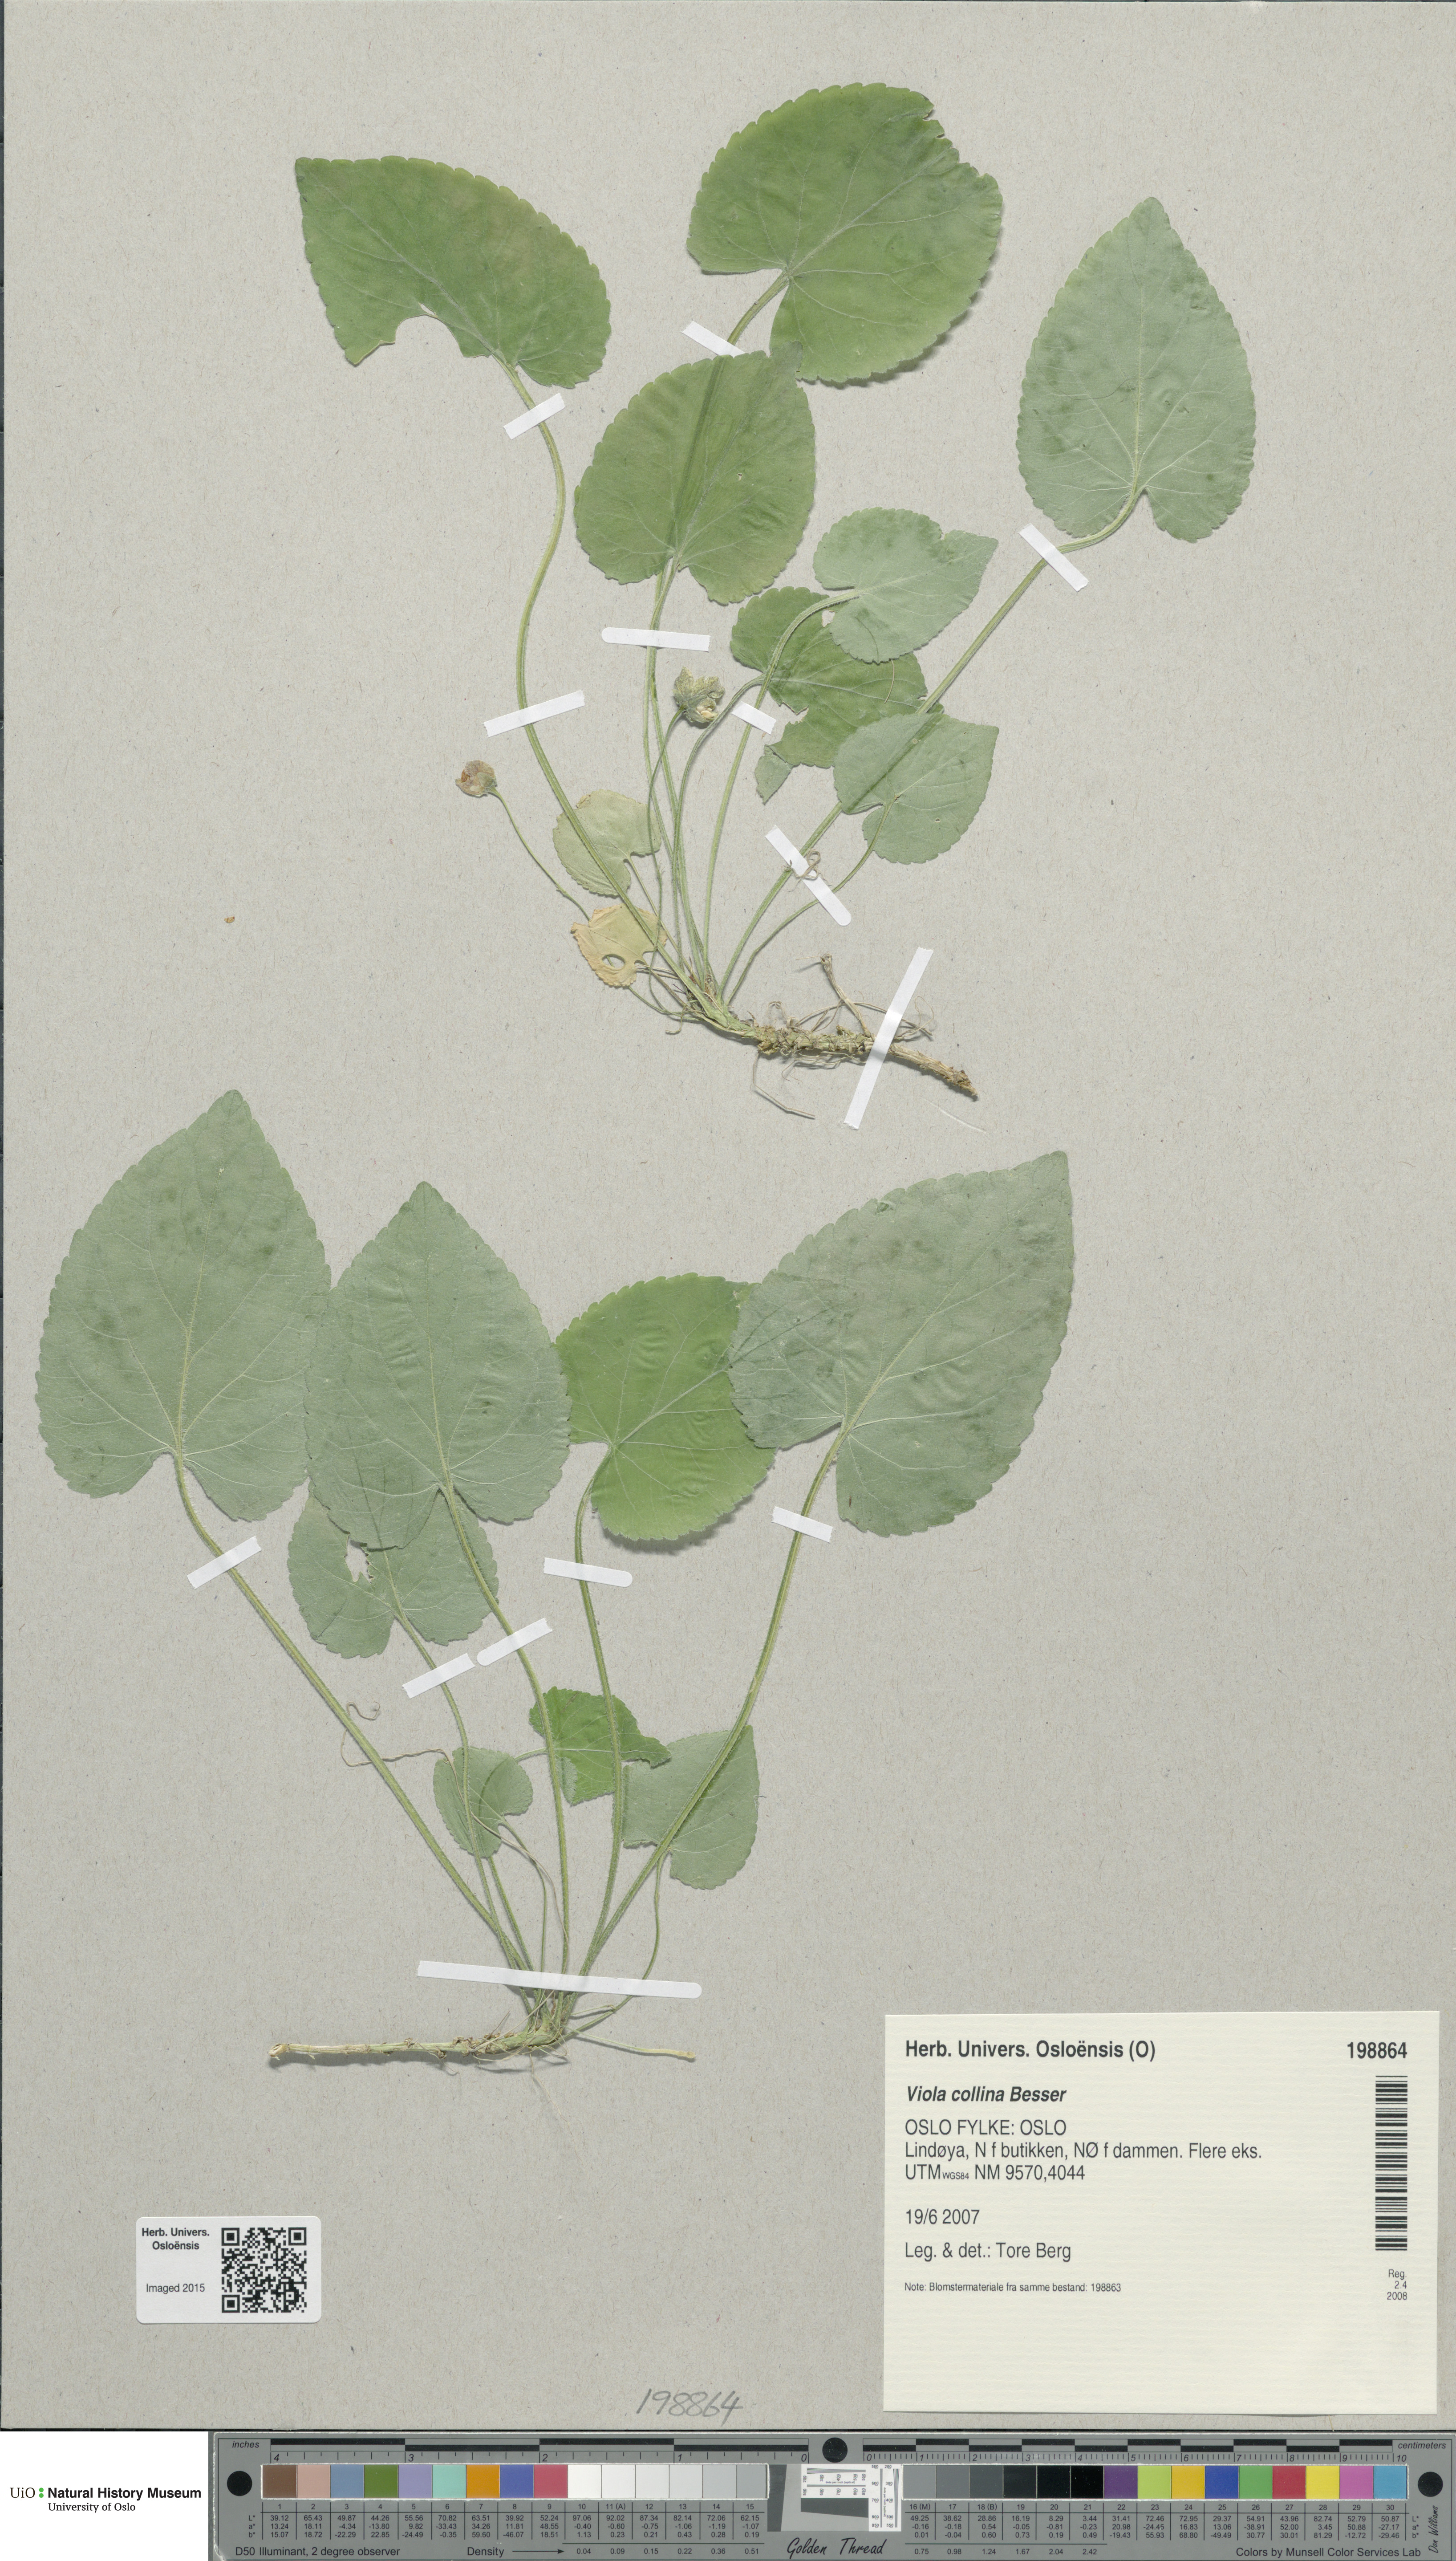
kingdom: Plantae
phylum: Tracheophyta
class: Magnoliopsida
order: Malpighiales
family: Violaceae
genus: Viola
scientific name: Viola collina
